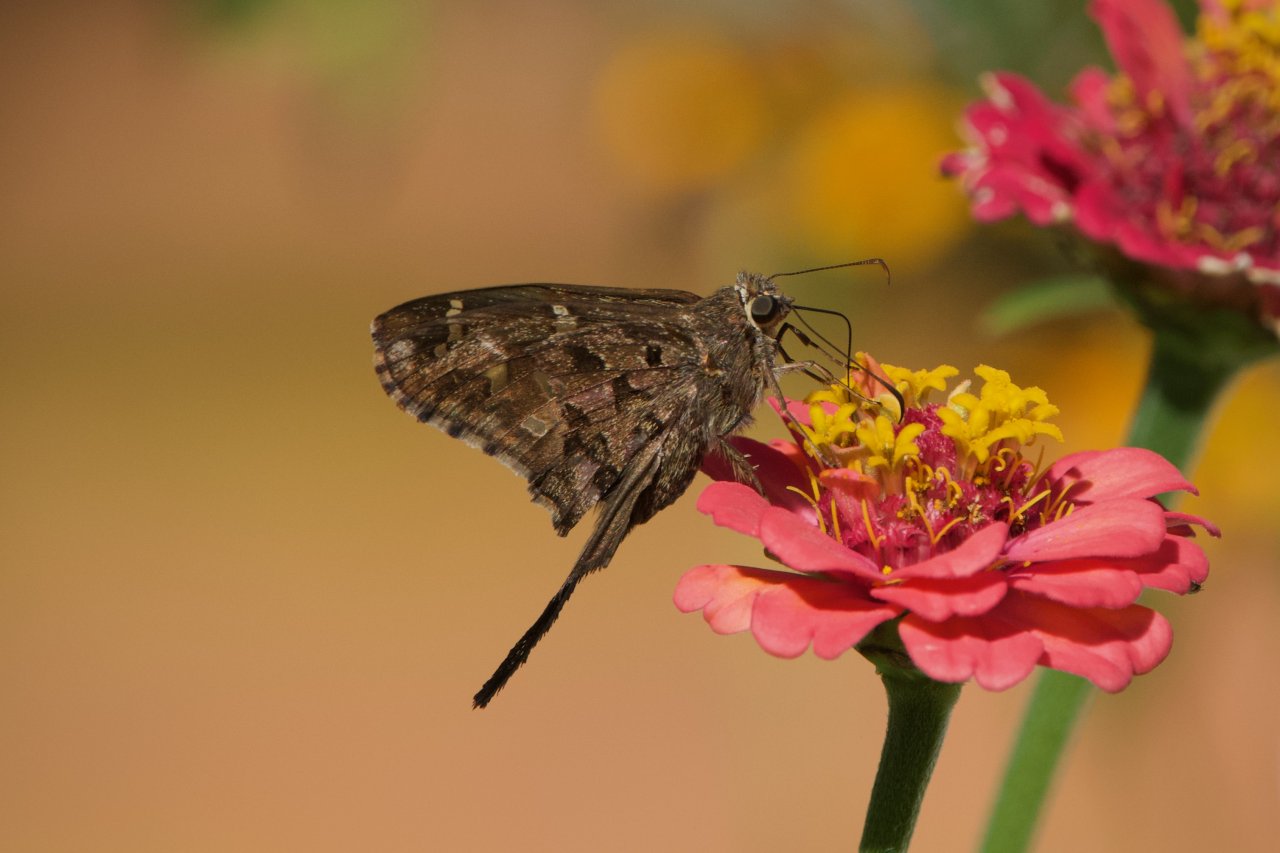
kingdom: Animalia
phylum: Arthropoda
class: Insecta
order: Lepidoptera
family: Hesperiidae
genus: Urbanus
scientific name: Urbanus dorantes
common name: Dorantes Longtail
